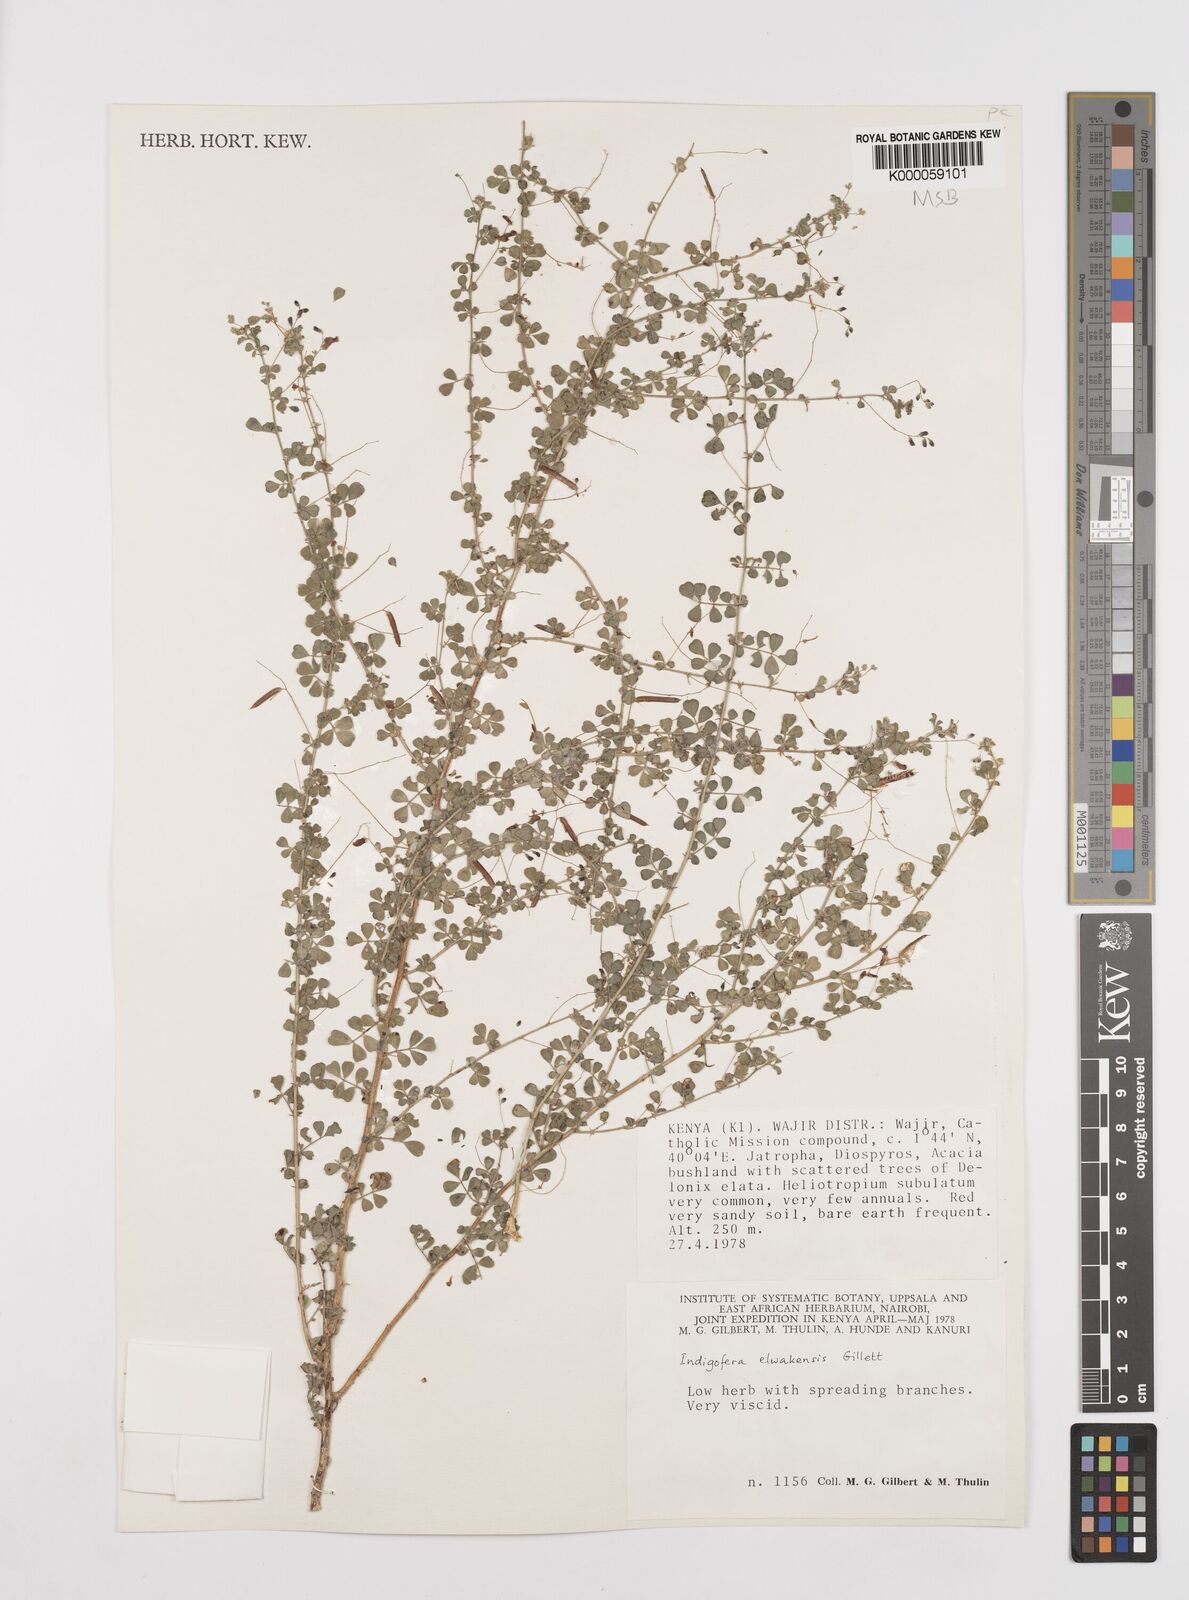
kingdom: Plantae
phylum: Tracheophyta
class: Magnoliopsida
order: Fabales
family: Fabaceae
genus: Indigofera
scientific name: Indigofera elwakensis
